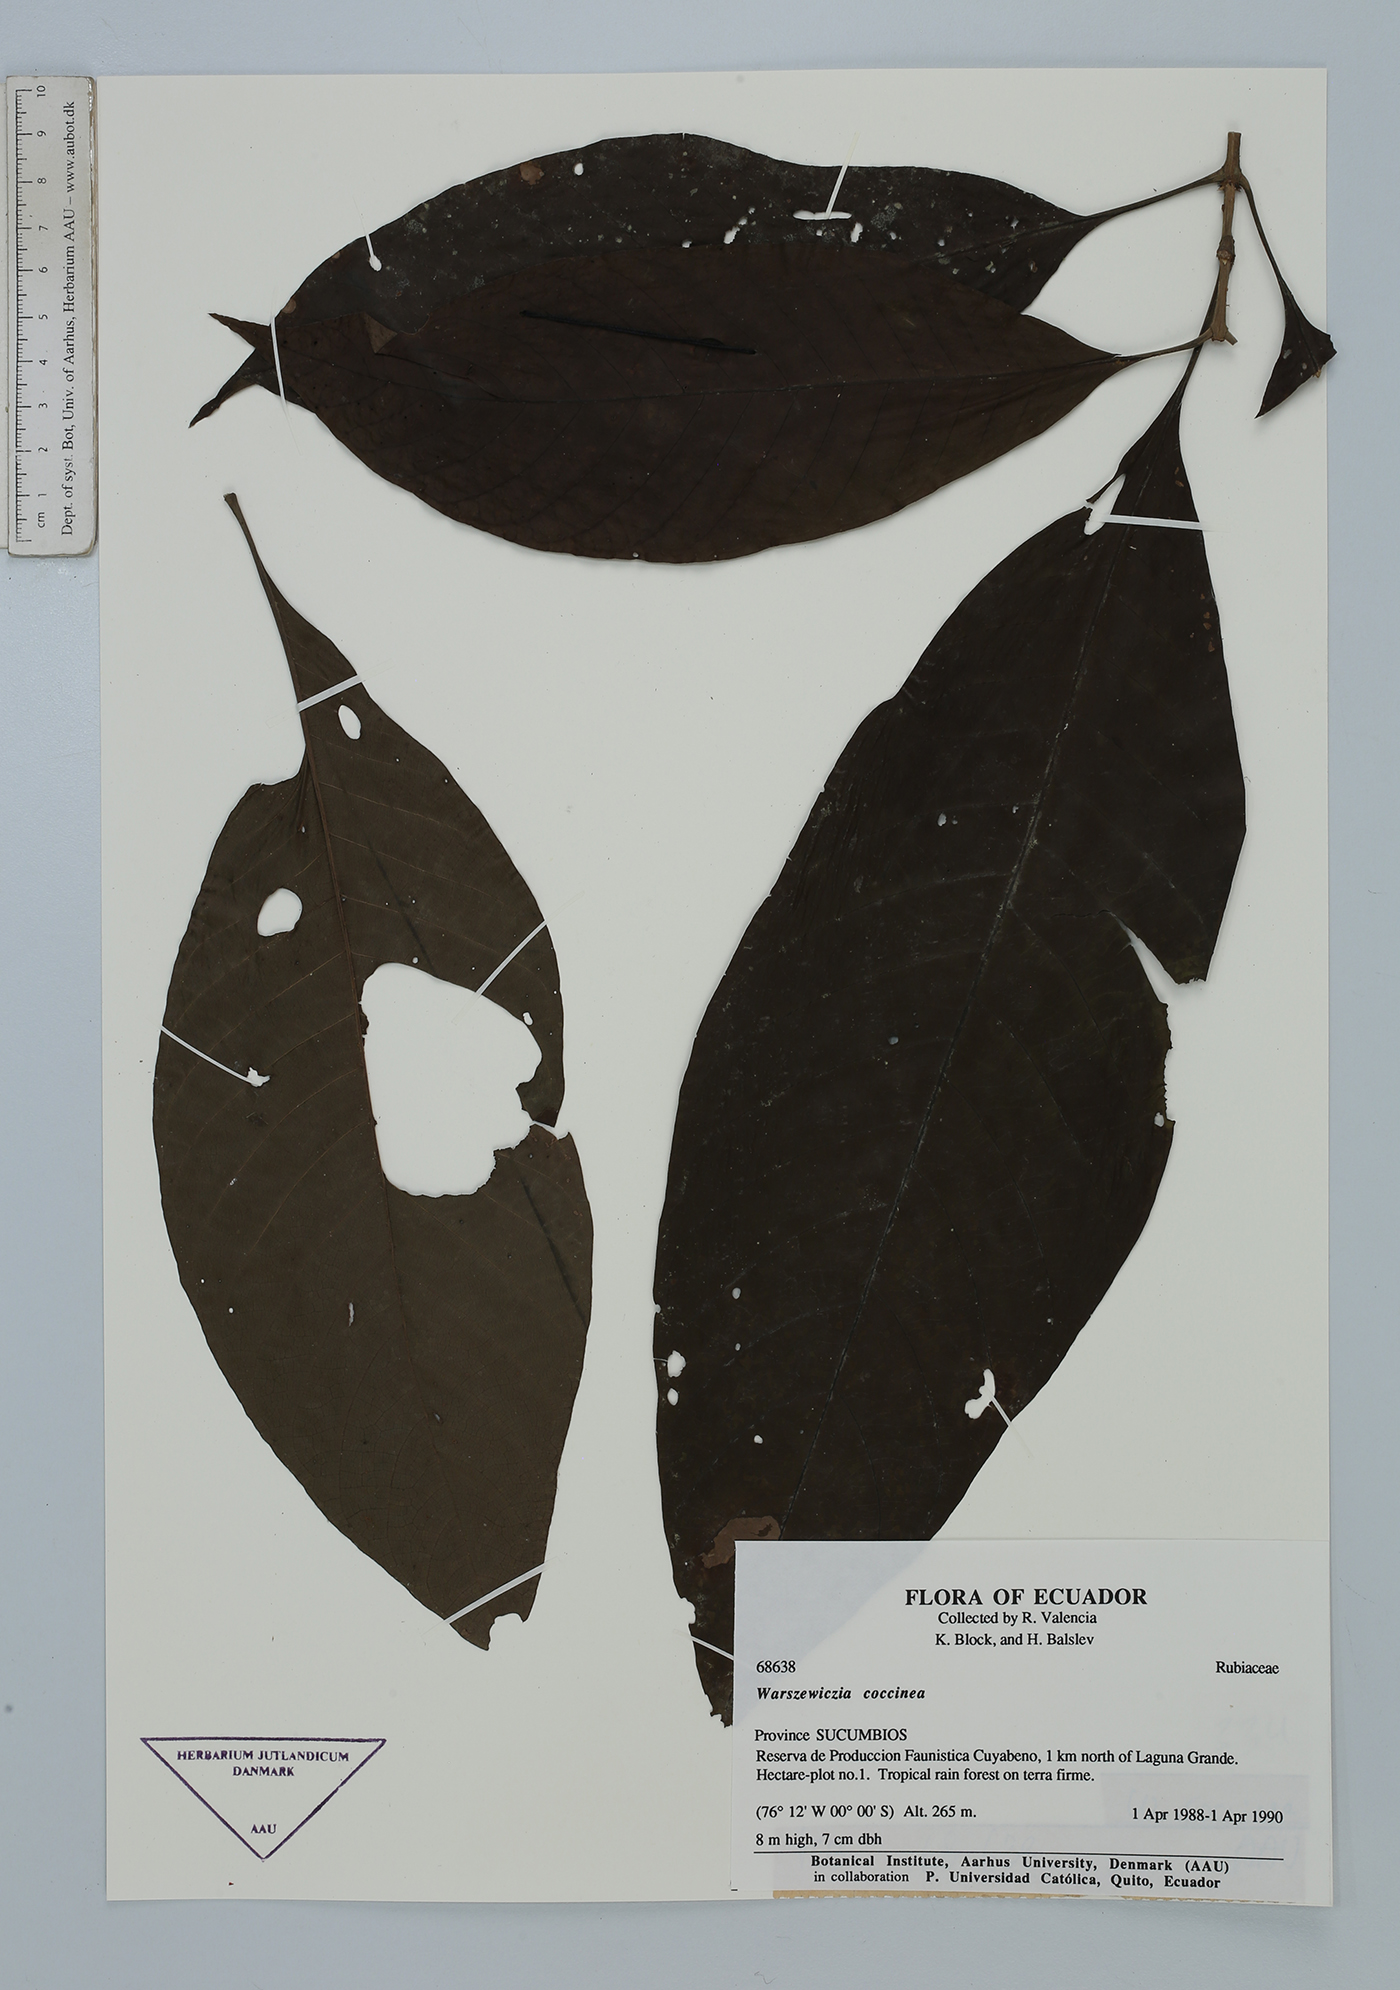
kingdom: Plantae
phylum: Tracheophyta
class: Magnoliopsida
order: Gentianales
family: Rubiaceae
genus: Warszewiczia
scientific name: Warszewiczia coccinea
